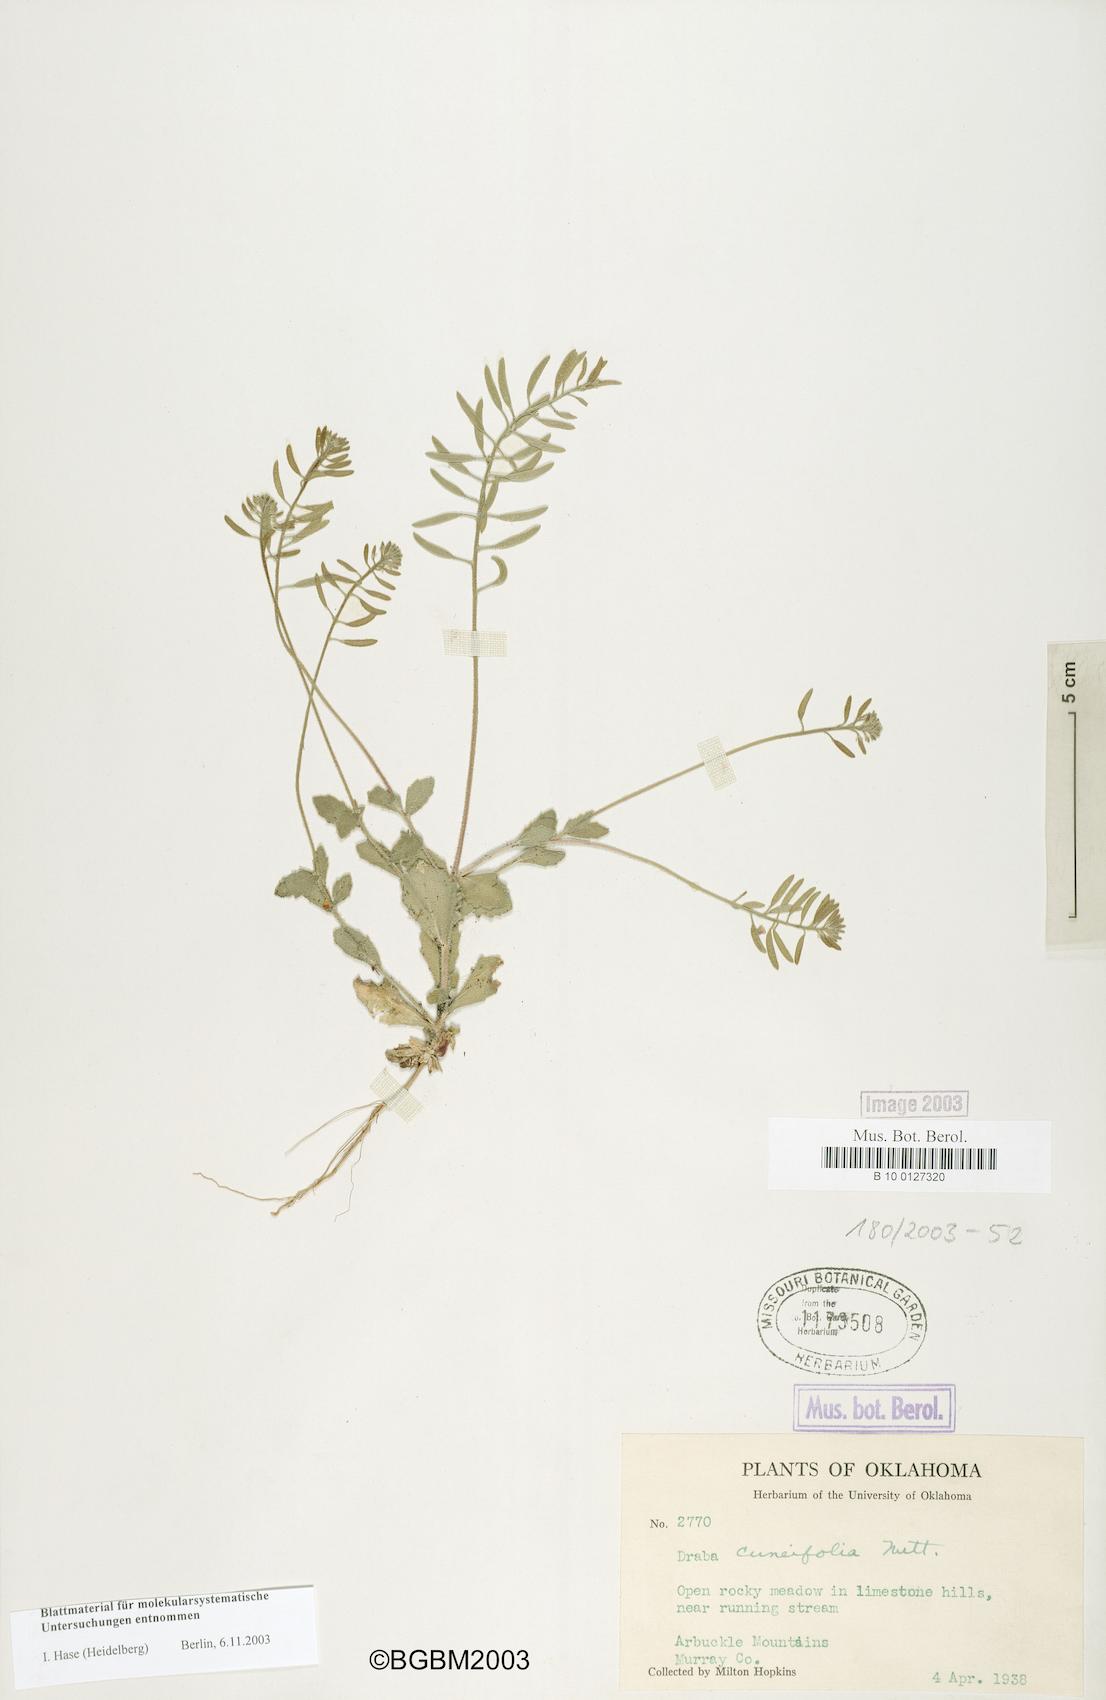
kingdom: Plantae
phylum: Tracheophyta
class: Magnoliopsida
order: Brassicales
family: Brassicaceae
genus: Tomostima
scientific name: Tomostima cuneifolia
